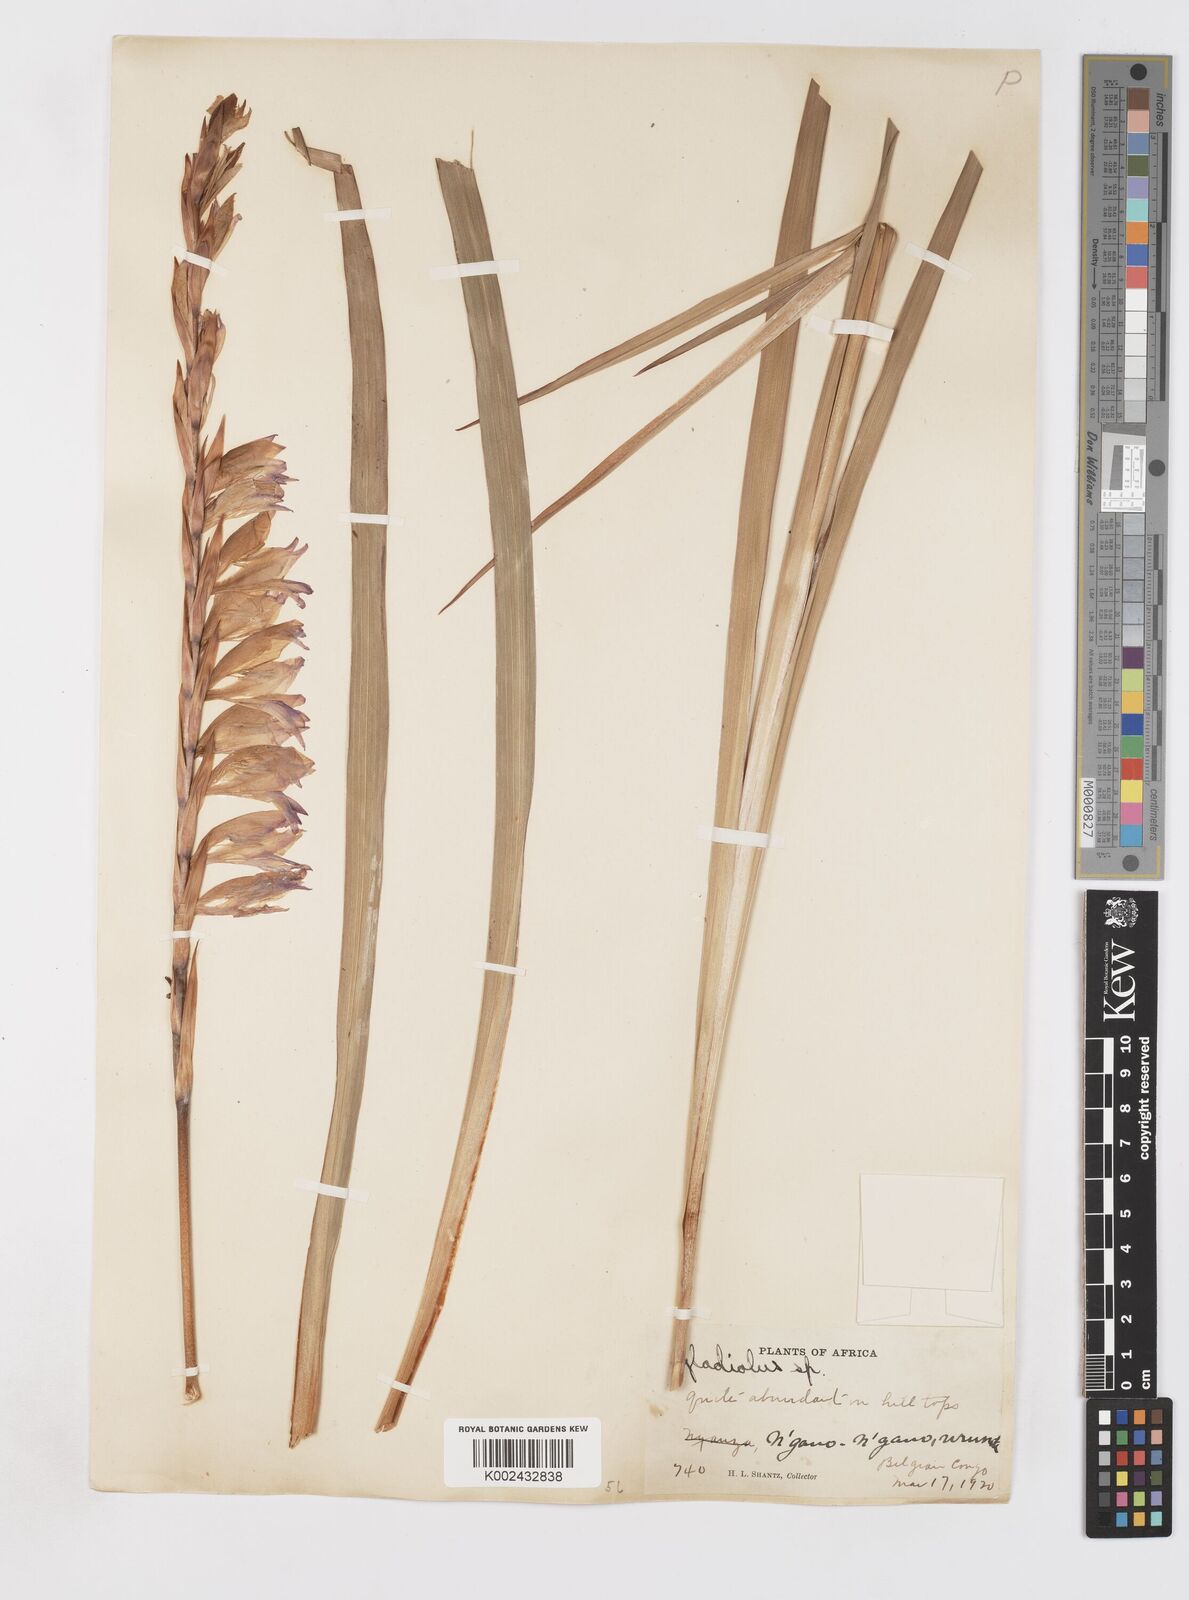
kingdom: Plantae
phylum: Tracheophyta
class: Liliopsida
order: Asparagales
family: Iridaceae
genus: Gladiolus
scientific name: Gladiolus gregarius
